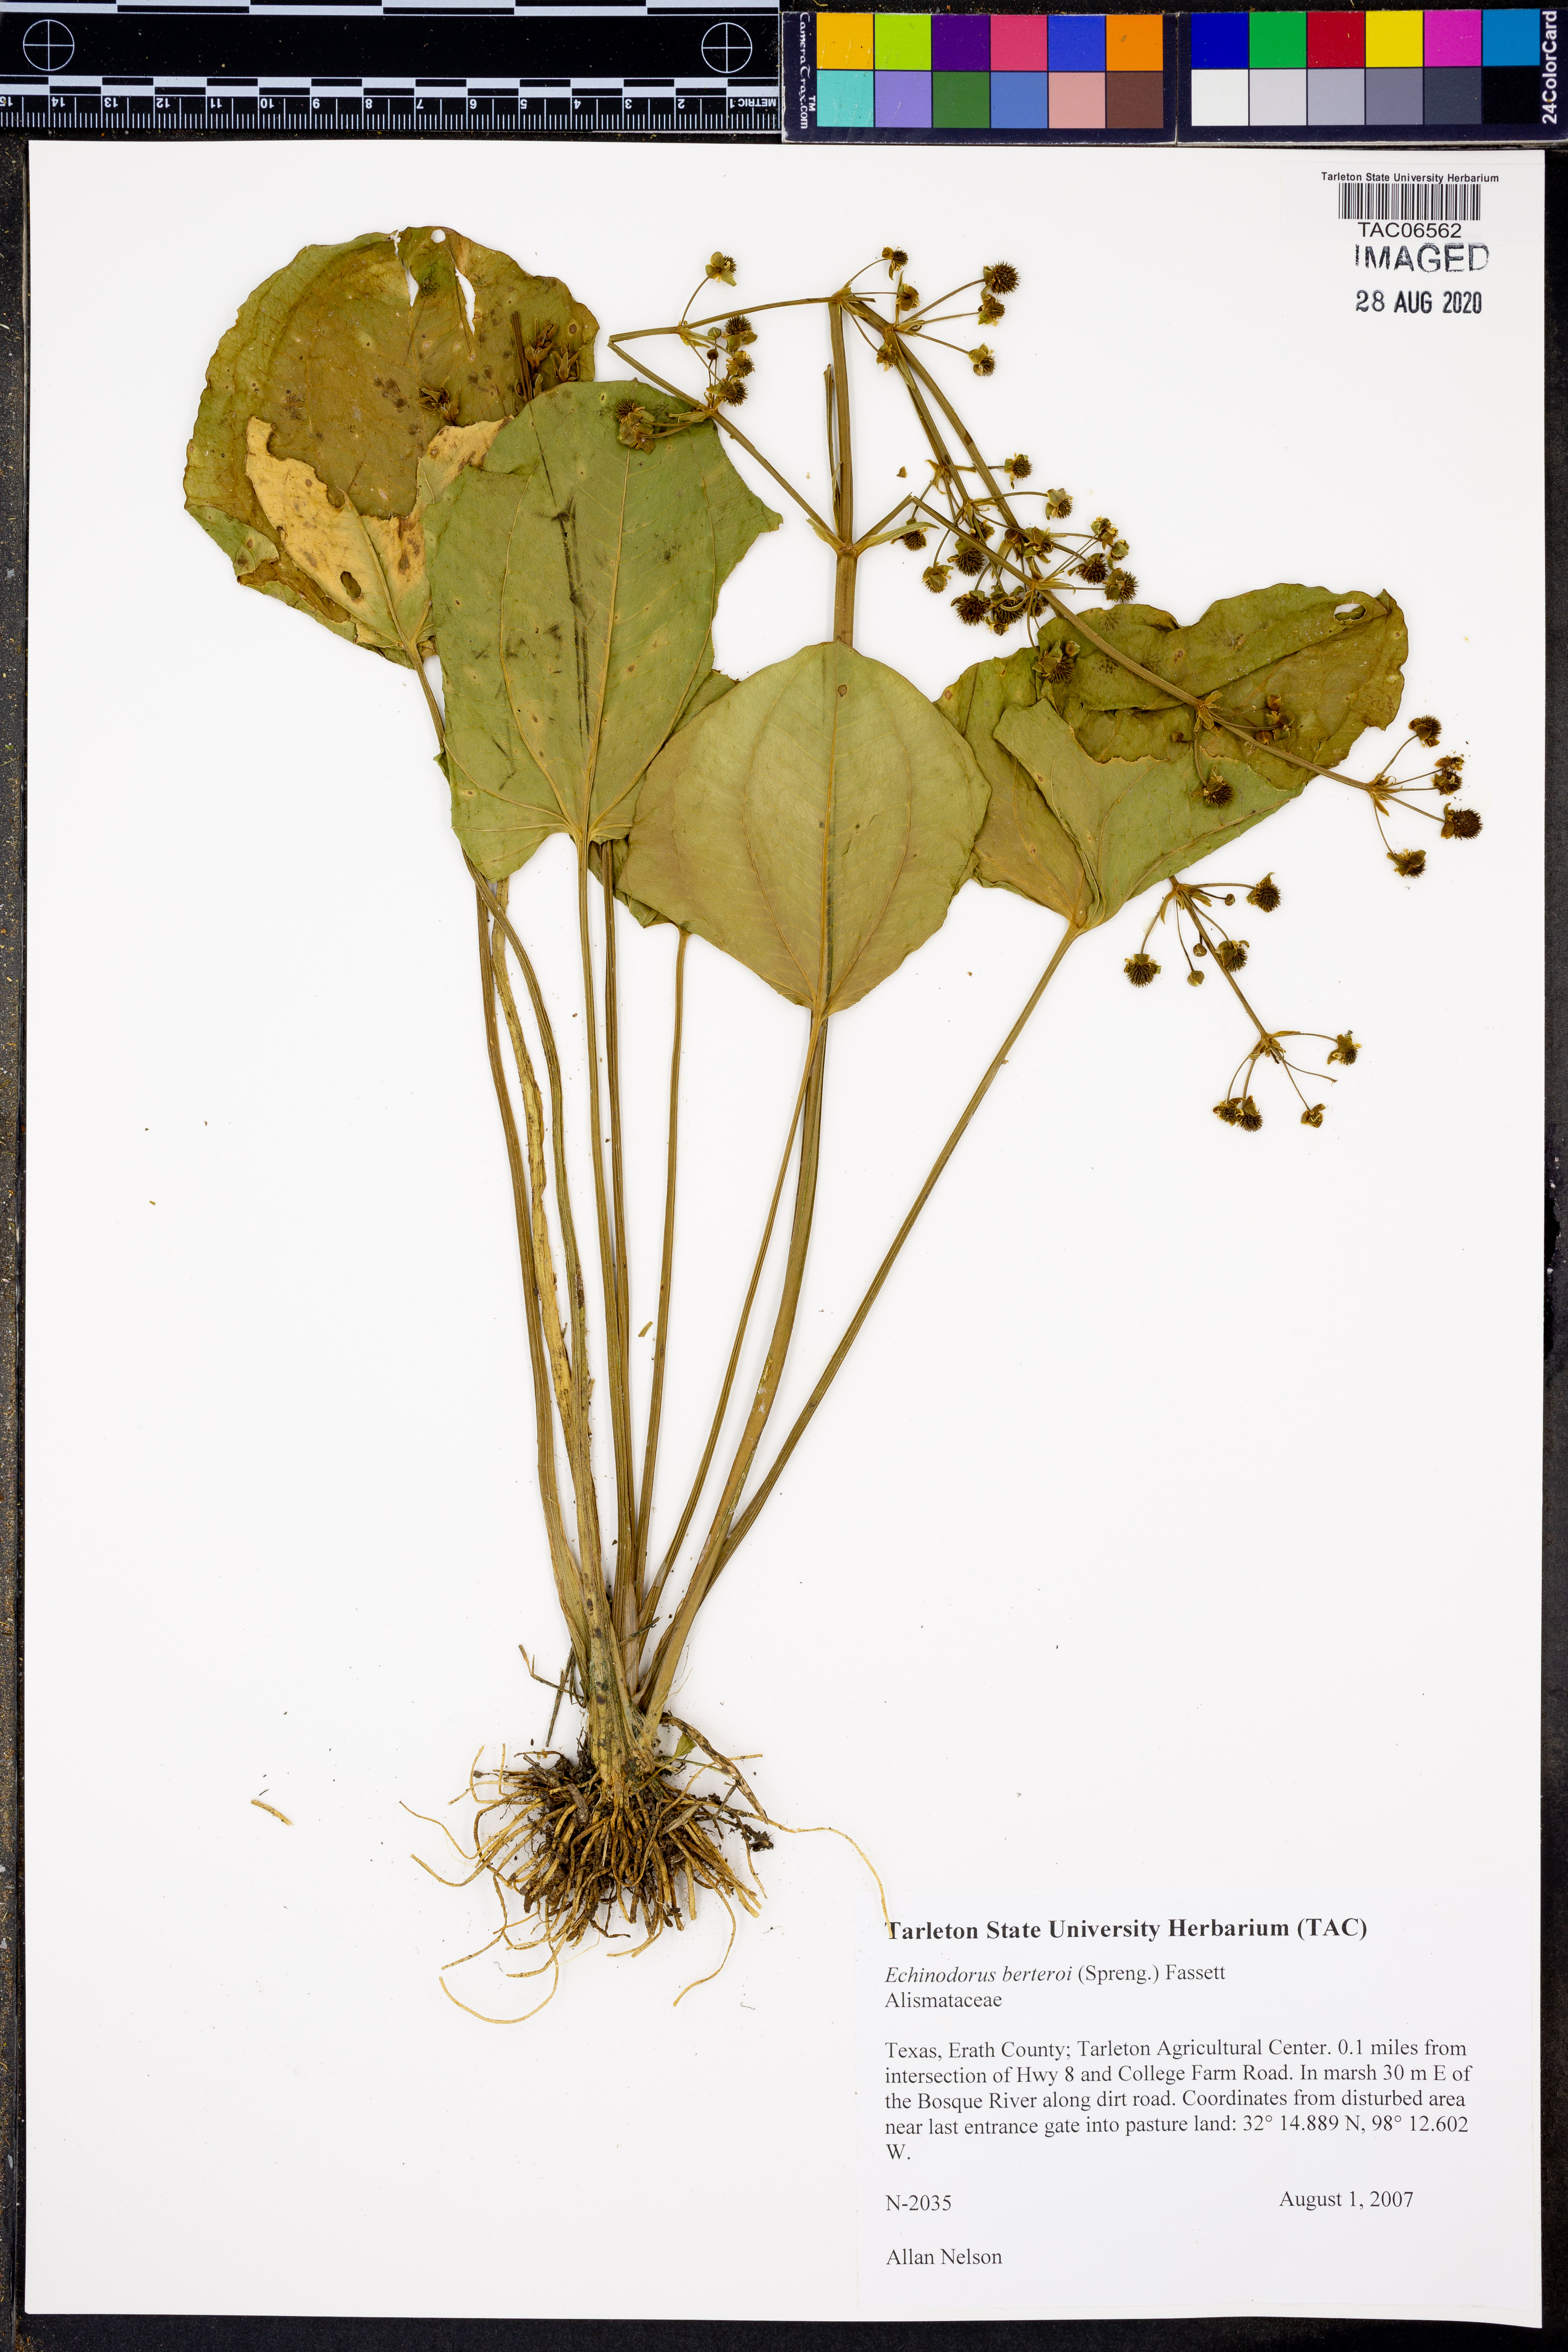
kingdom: Plantae
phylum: Tracheophyta
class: Liliopsida
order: Alismatales
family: Alismataceae
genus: Echinodorus
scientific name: Echinodorus berteroi
